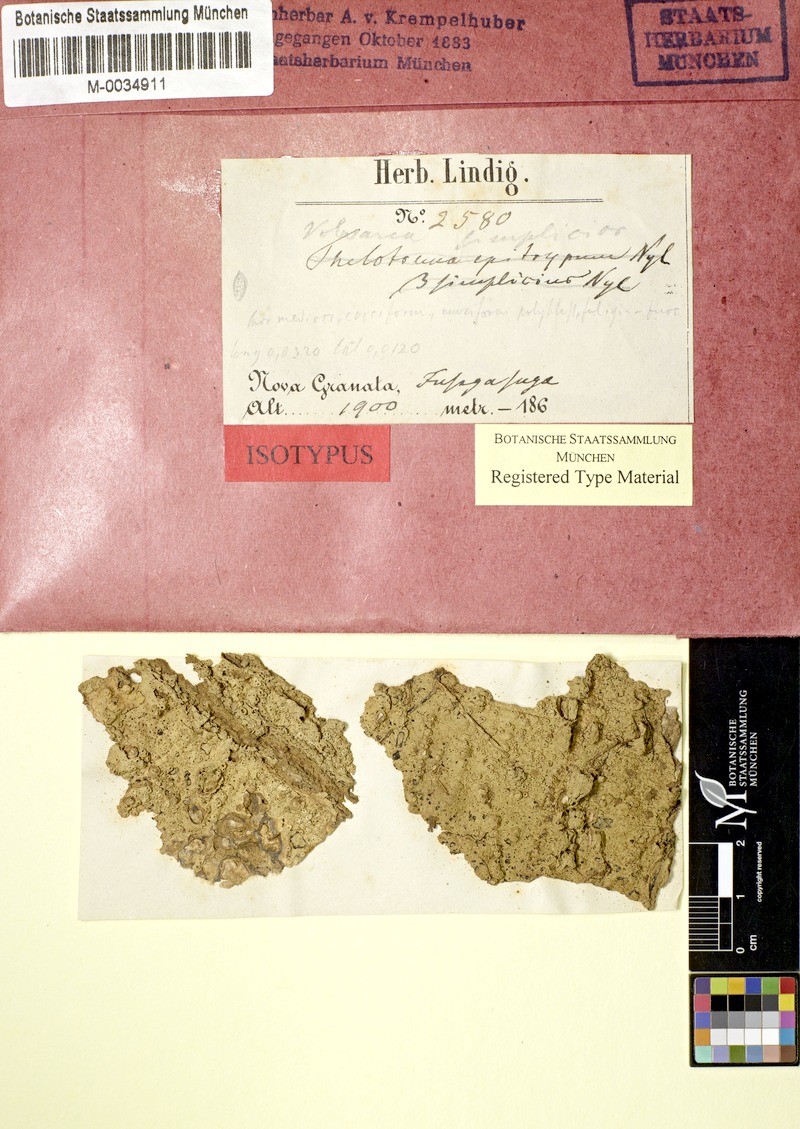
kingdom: Fungi
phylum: Ascomycota
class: Lecanoromycetes
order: Ostropales
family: Graphidaceae
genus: Ocellularia
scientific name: Ocellularia bahiana
